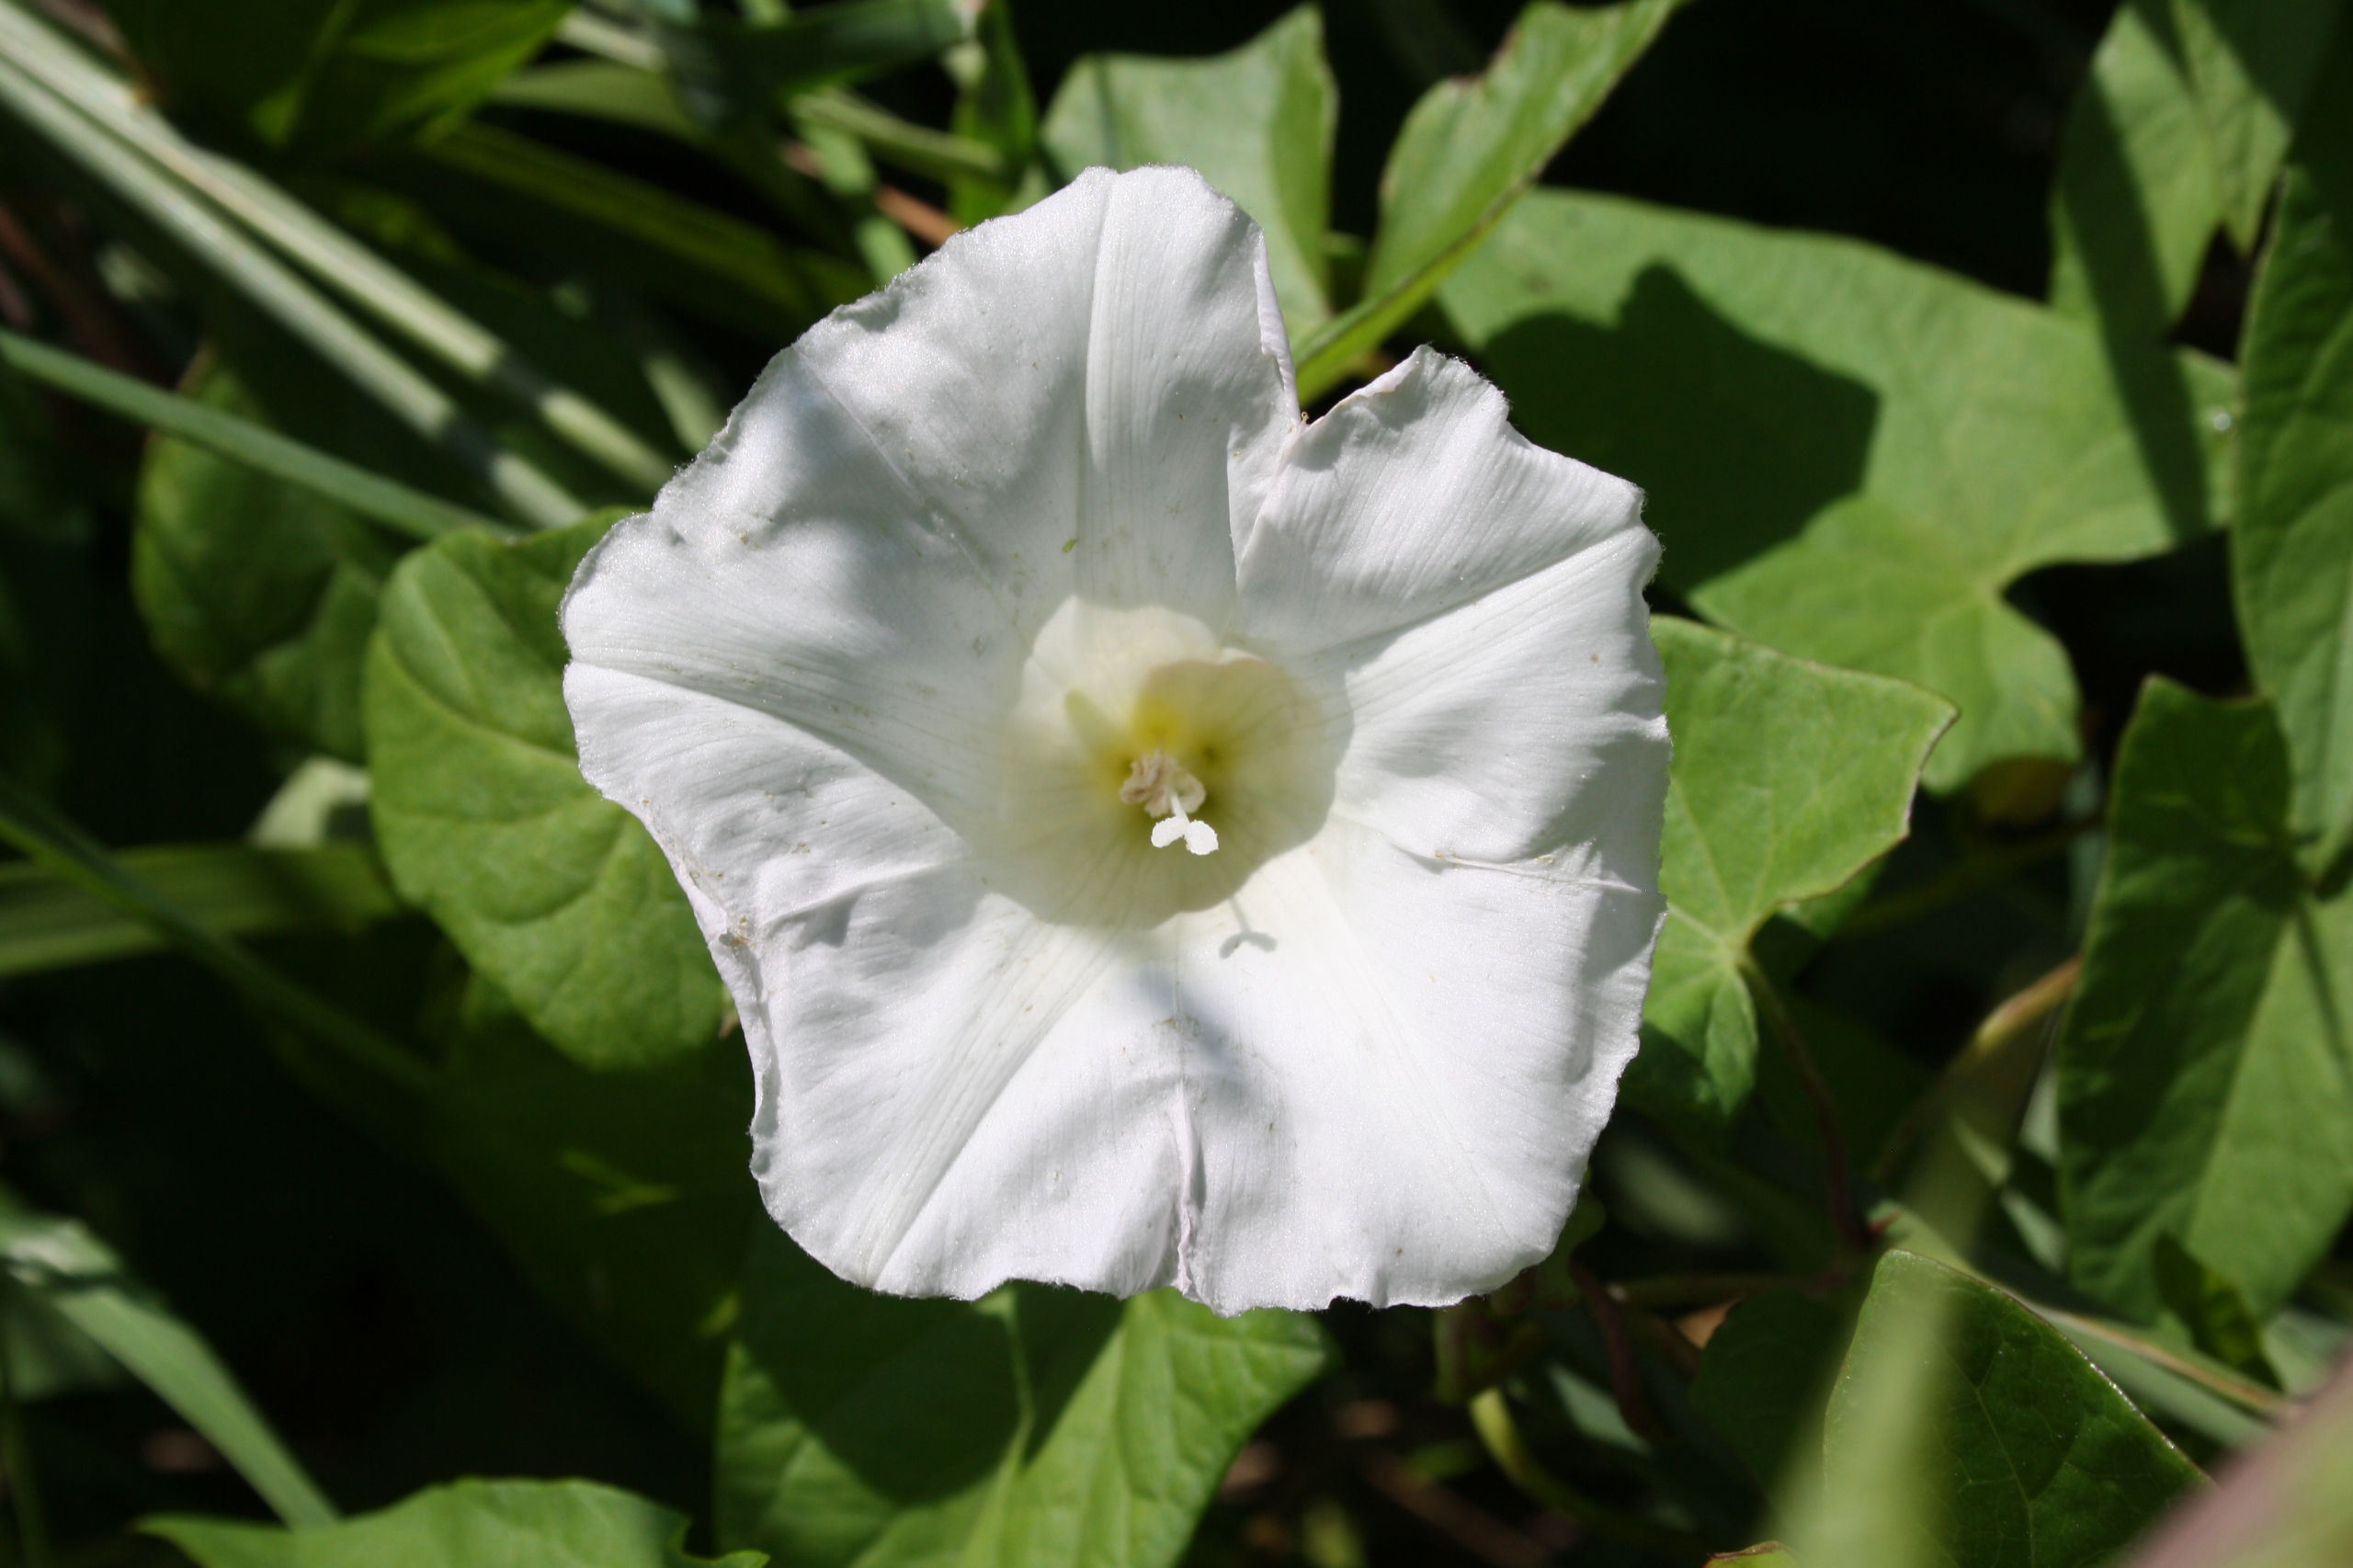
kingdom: Plantae
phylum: Tracheophyta
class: Magnoliopsida
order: Solanales
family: Convolvulaceae
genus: Calystegia
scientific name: Calystegia sepium
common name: Gærde-snerle
